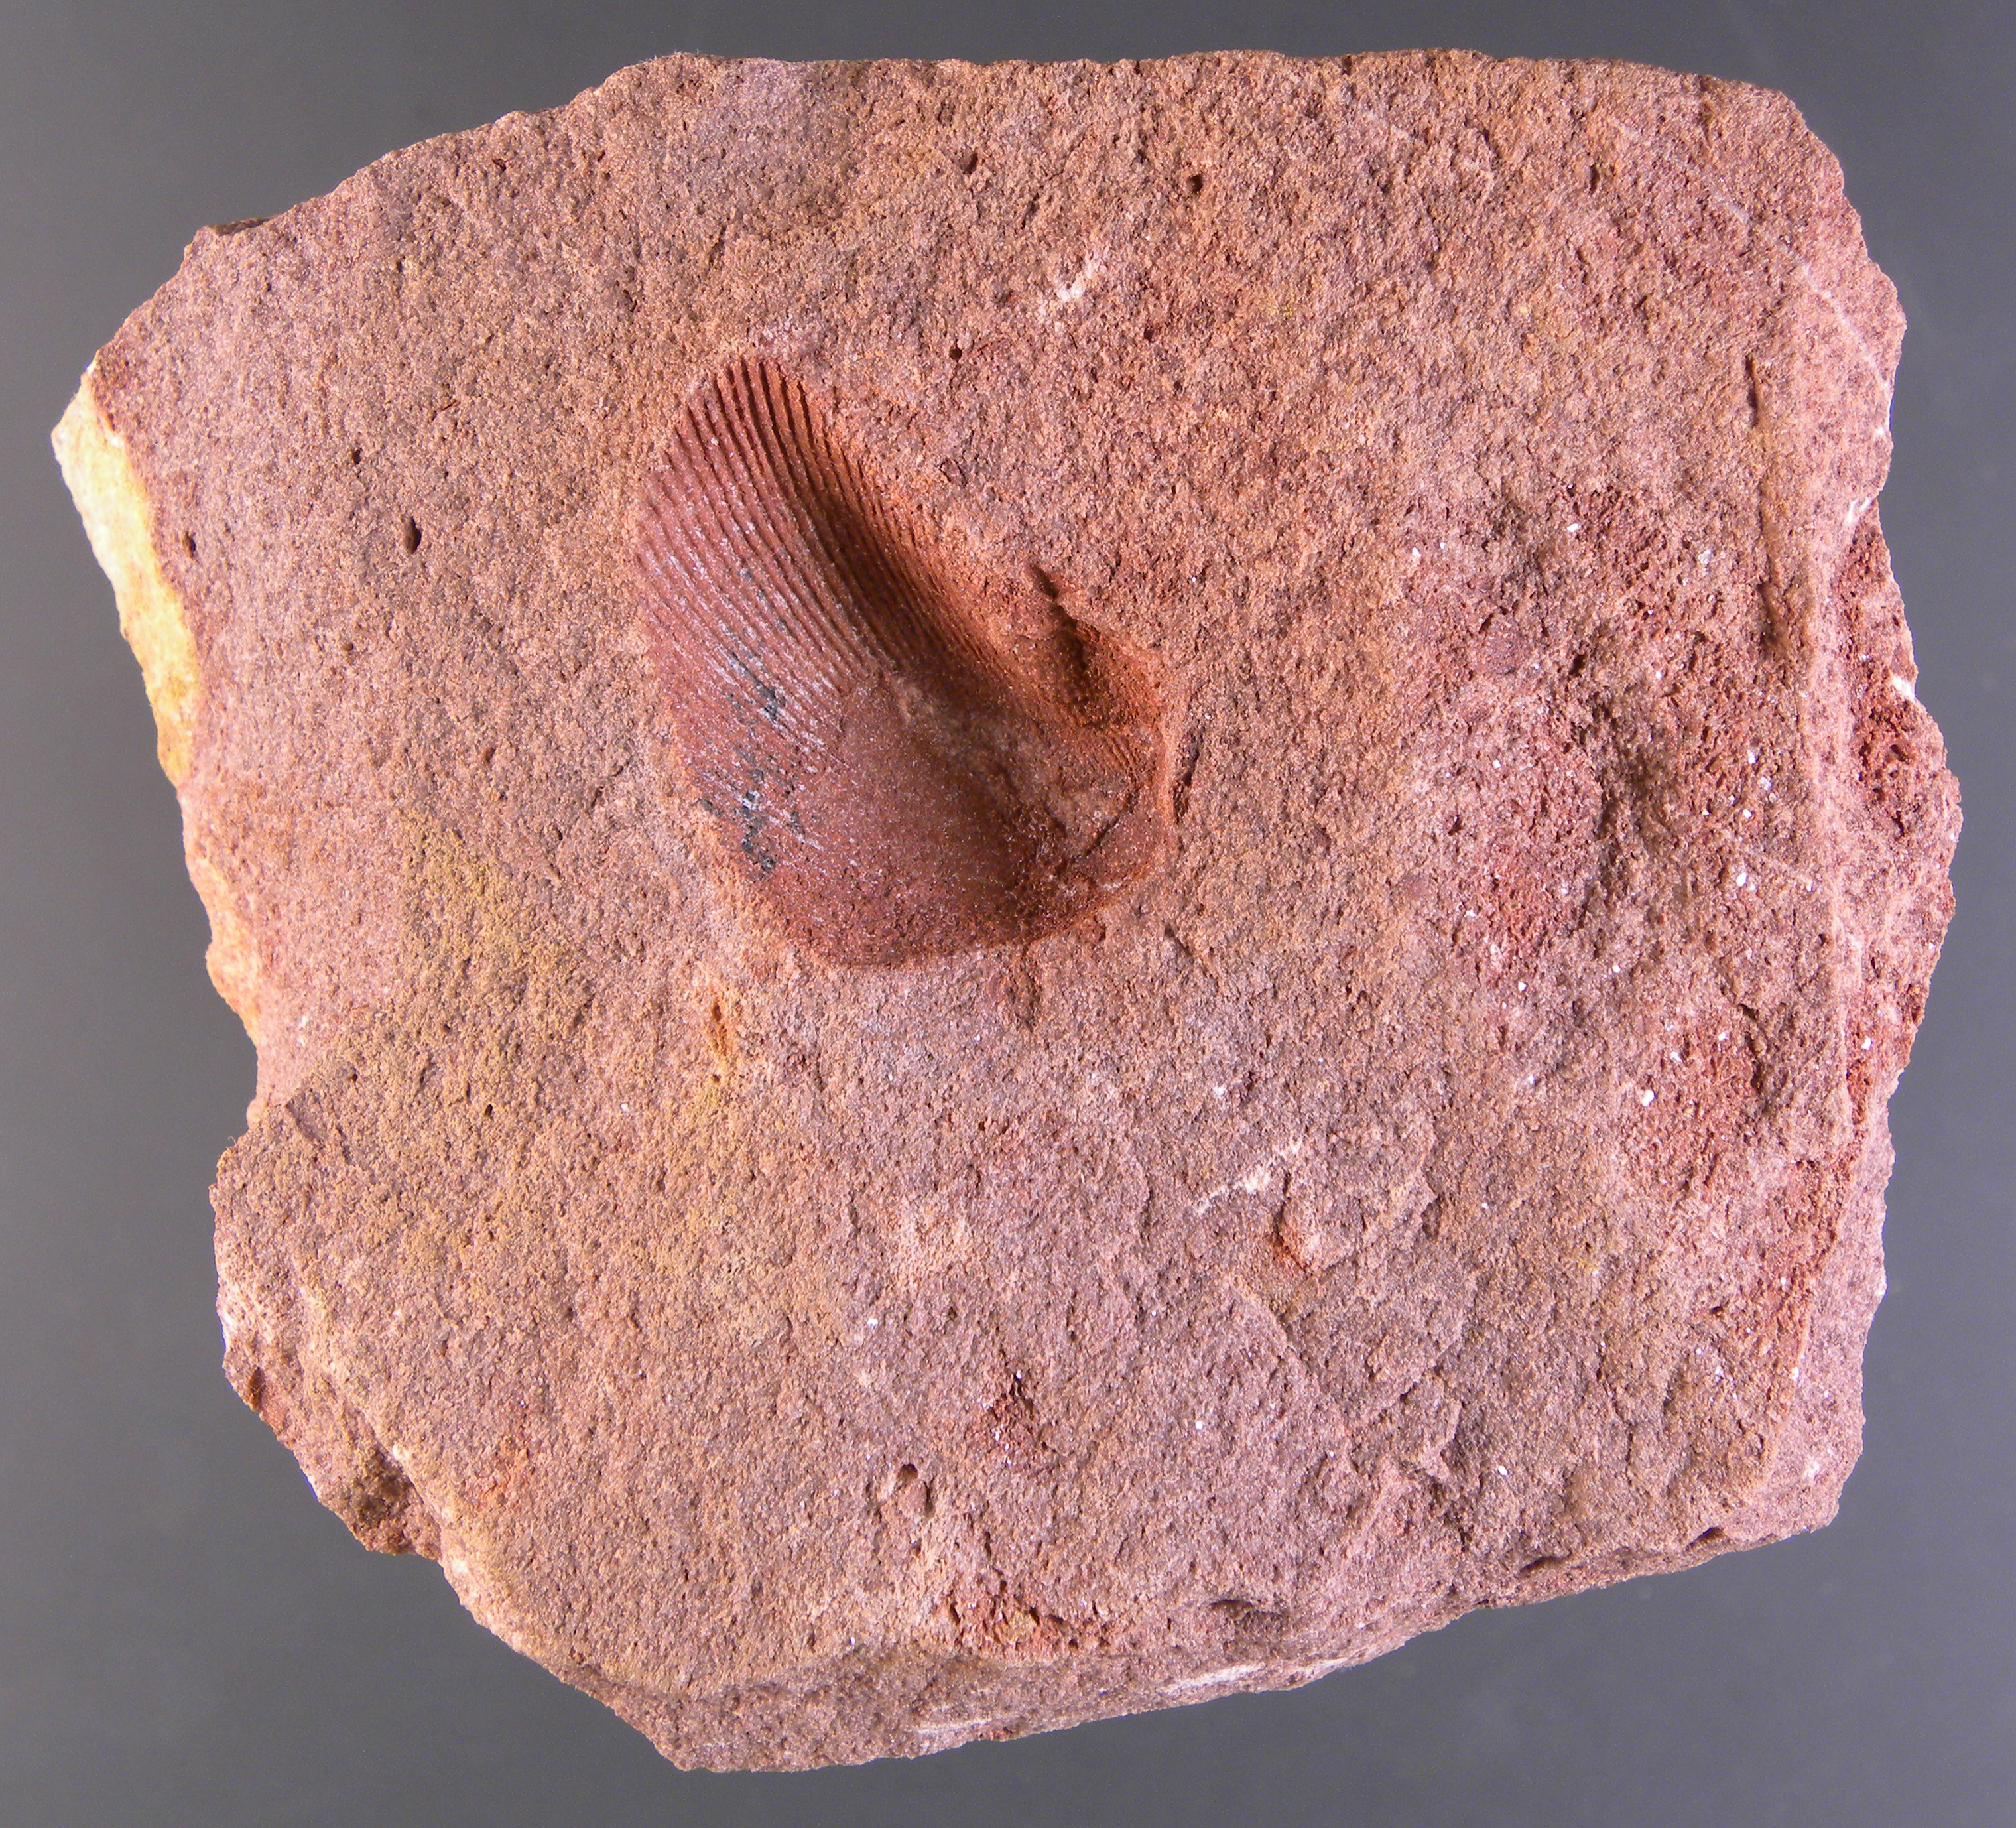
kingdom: Animalia
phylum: Mollusca
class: Bivalvia
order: Myalinida
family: Ambonychiidae
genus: Stappersella
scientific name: Stappersella
